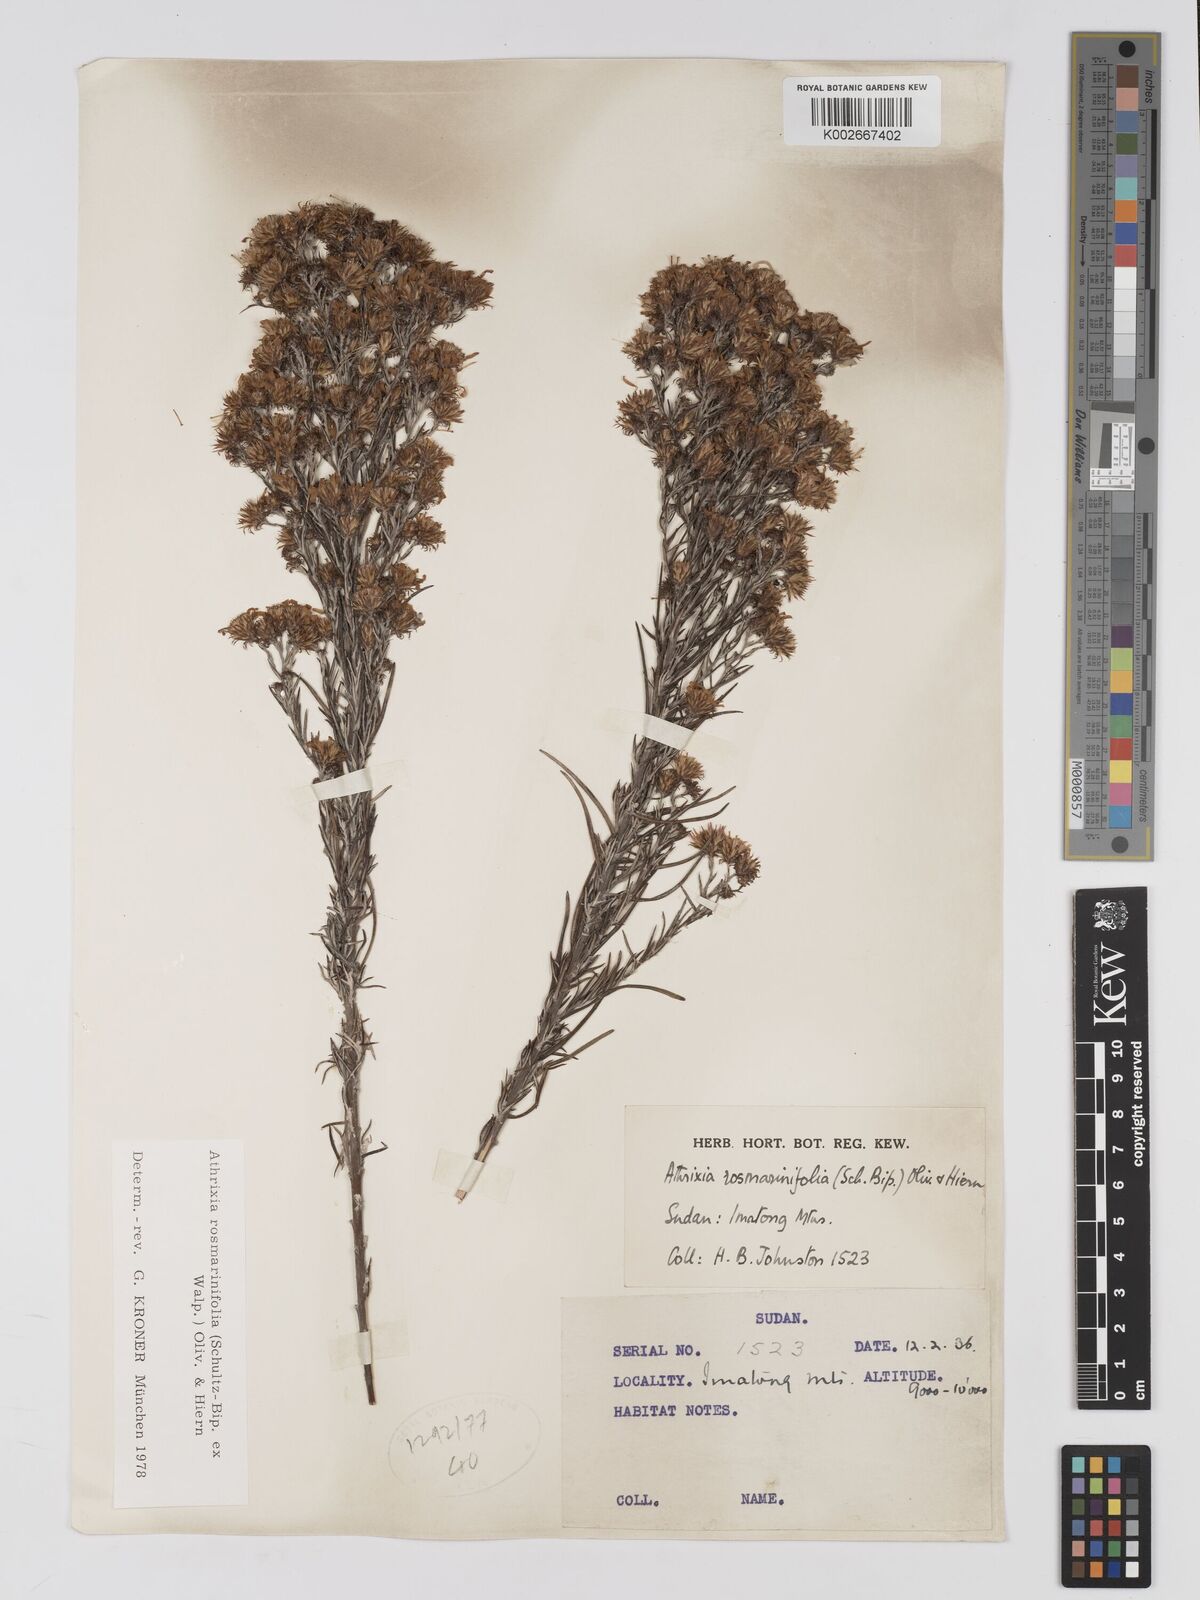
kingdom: Plantae
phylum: Tracheophyta
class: Magnoliopsida
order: Asterales
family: Asteraceae
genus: Athrixia
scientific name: Athrixia rosmarinifolia
